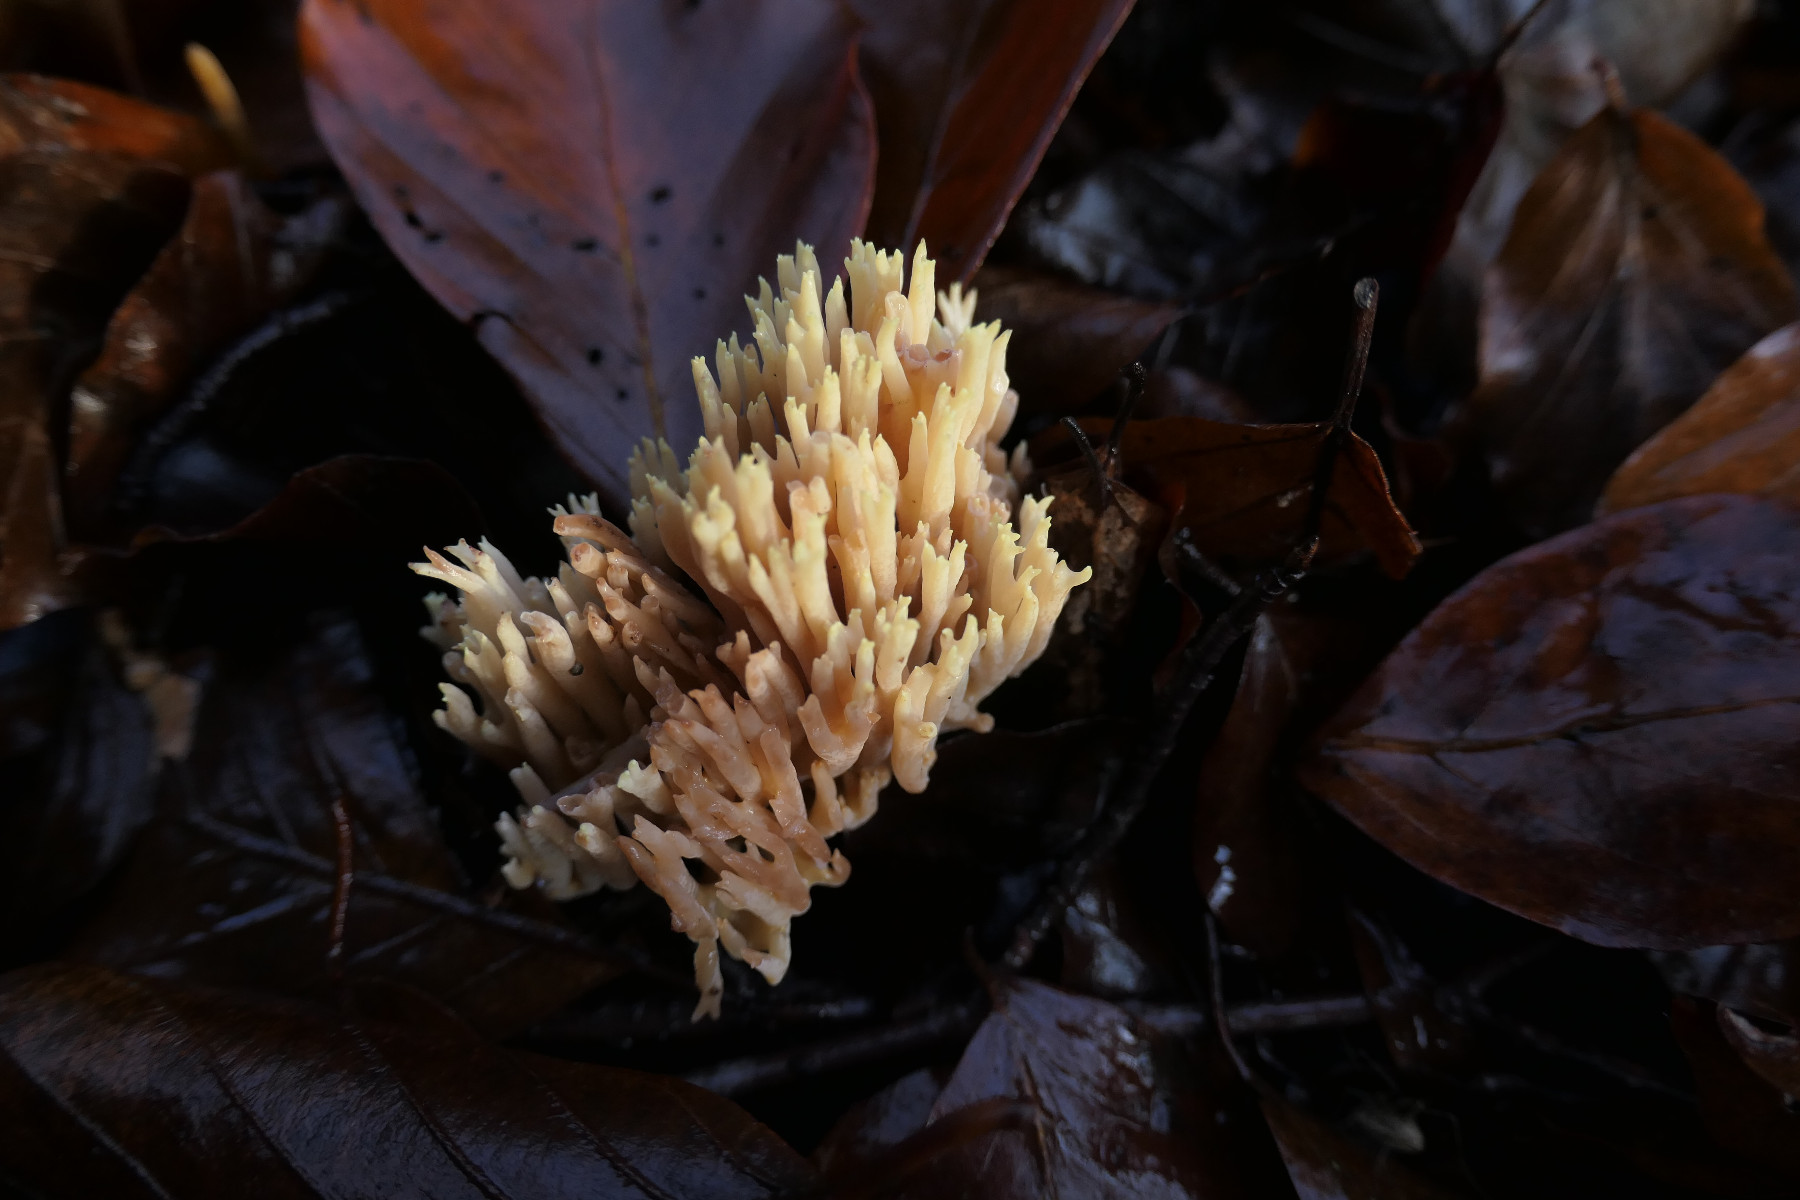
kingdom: Fungi
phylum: Basidiomycota
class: Agaricomycetes
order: Gomphales
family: Gomphaceae
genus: Ramaria
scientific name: Ramaria stricta
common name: rank koralsvamp
